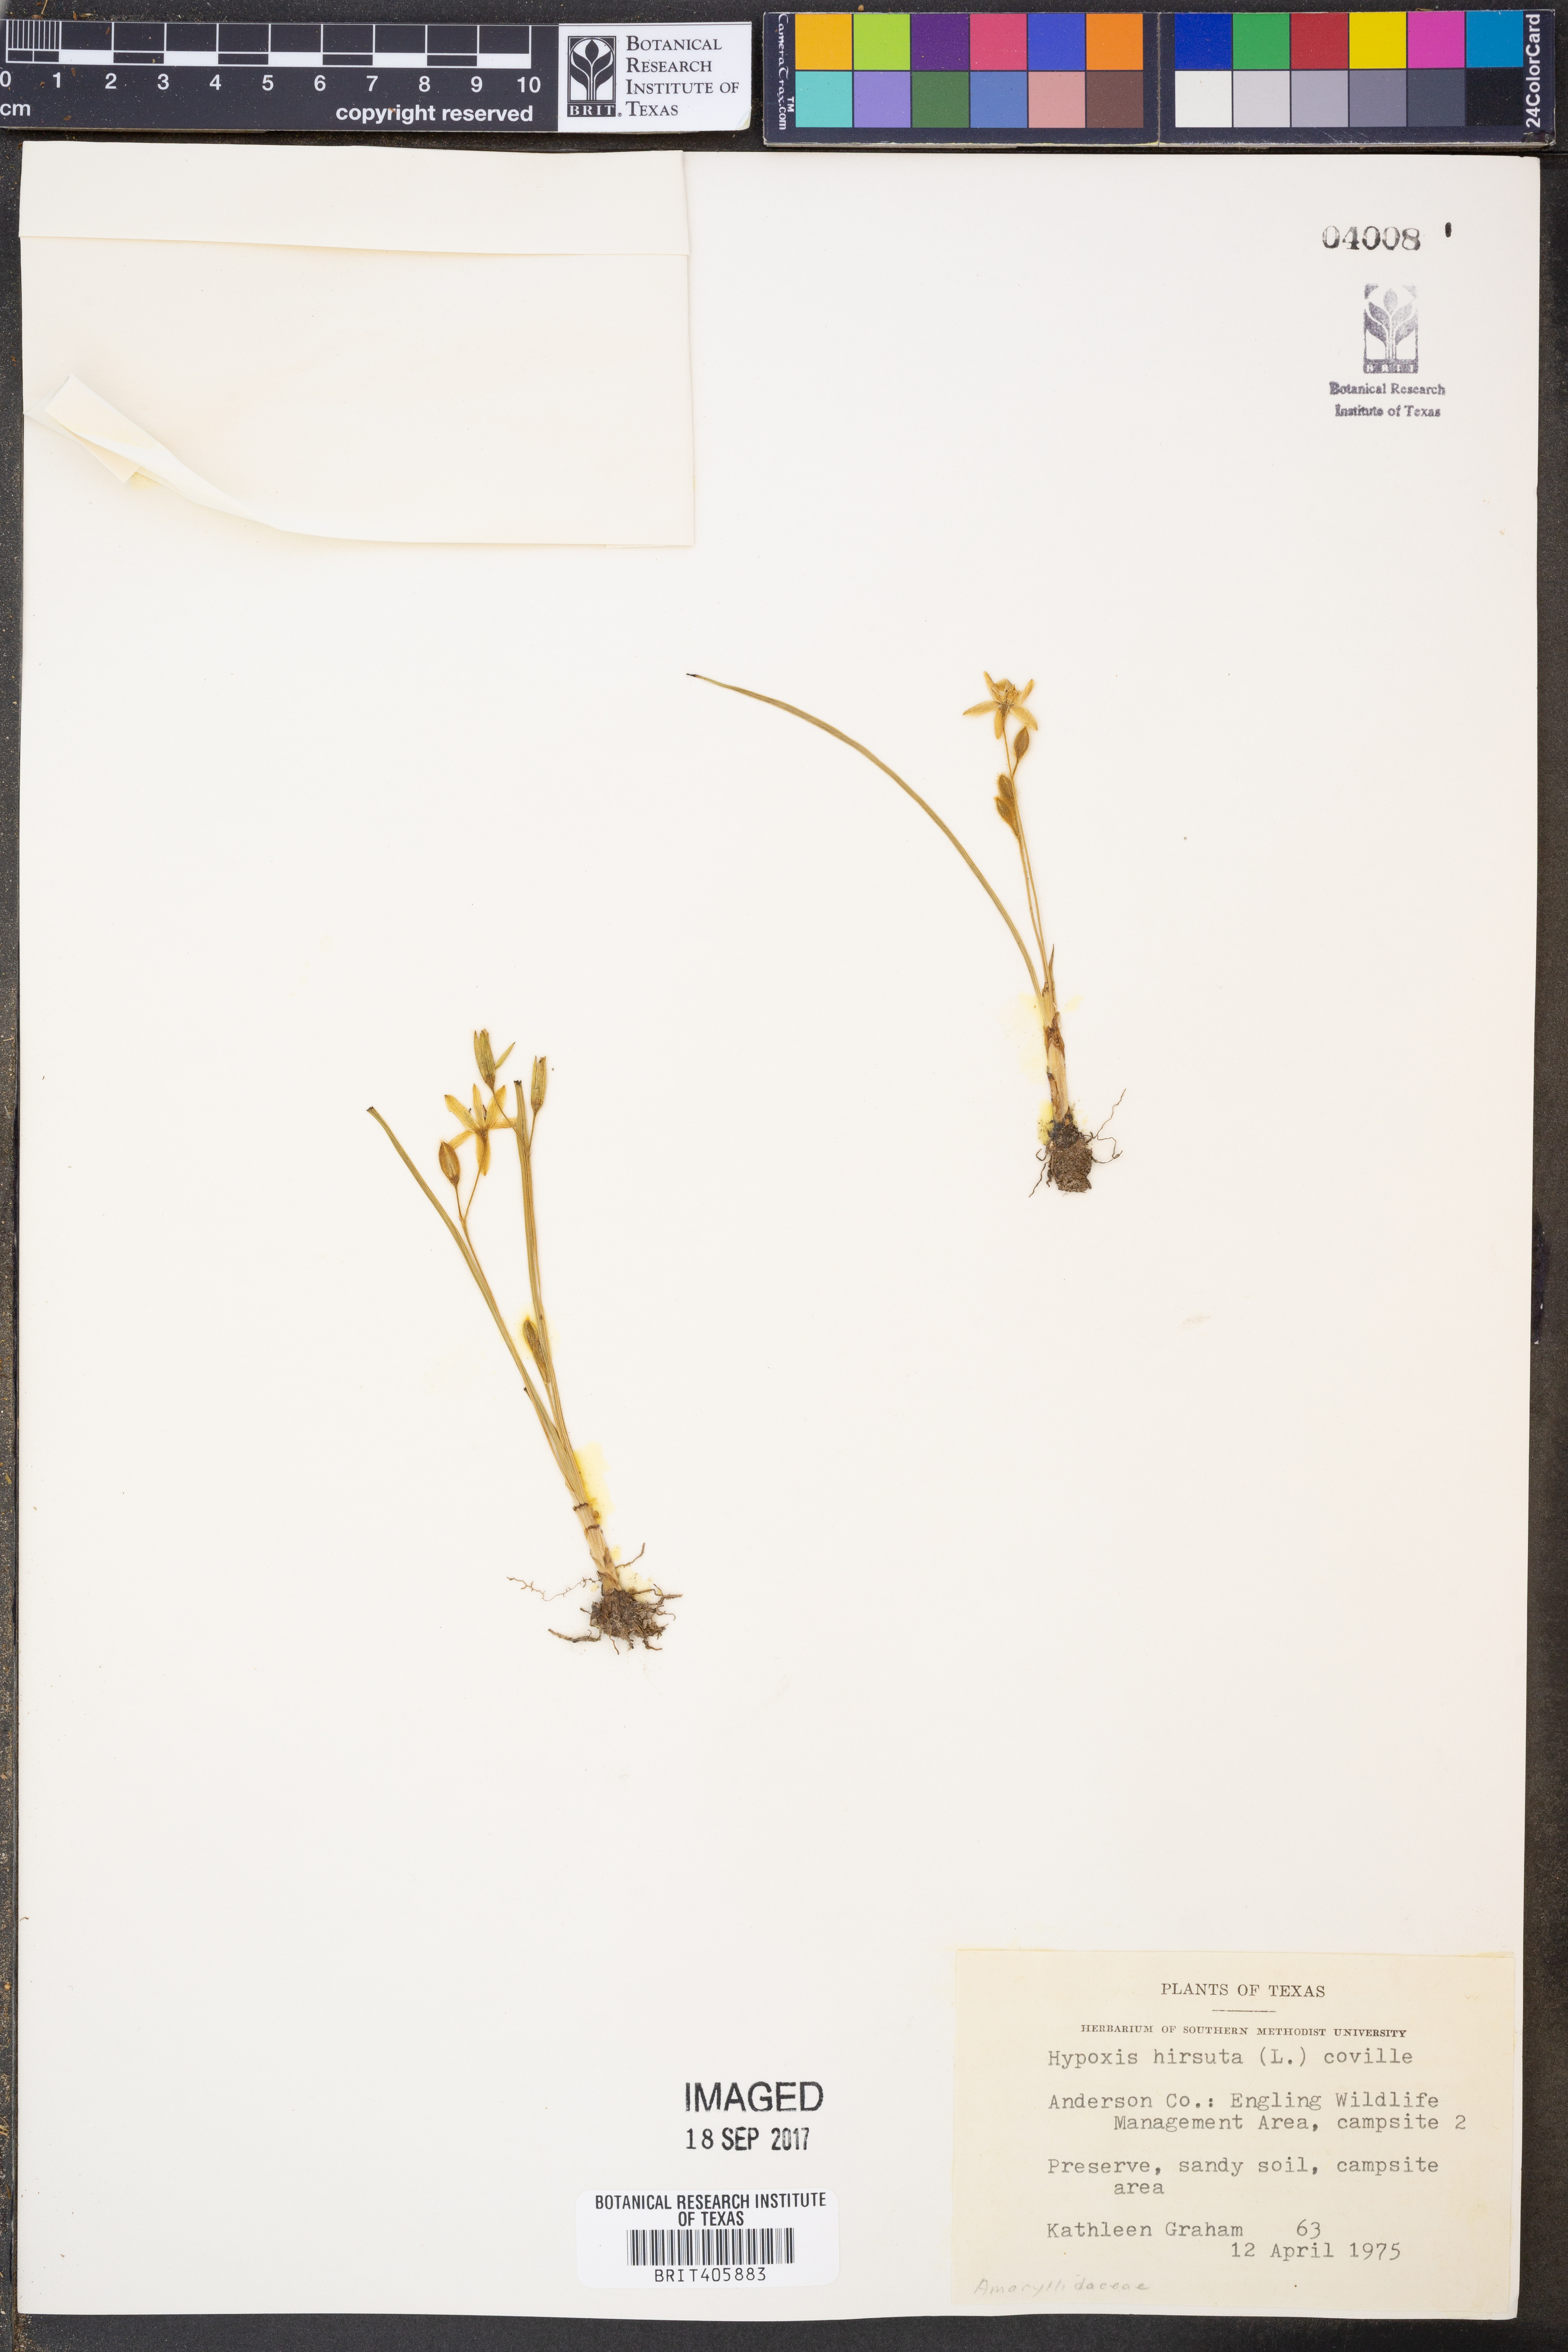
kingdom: Plantae
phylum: Tracheophyta
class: Liliopsida
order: Asparagales
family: Hypoxidaceae
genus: Hypoxis
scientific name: Hypoxis hirsuta
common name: Common goldstar
